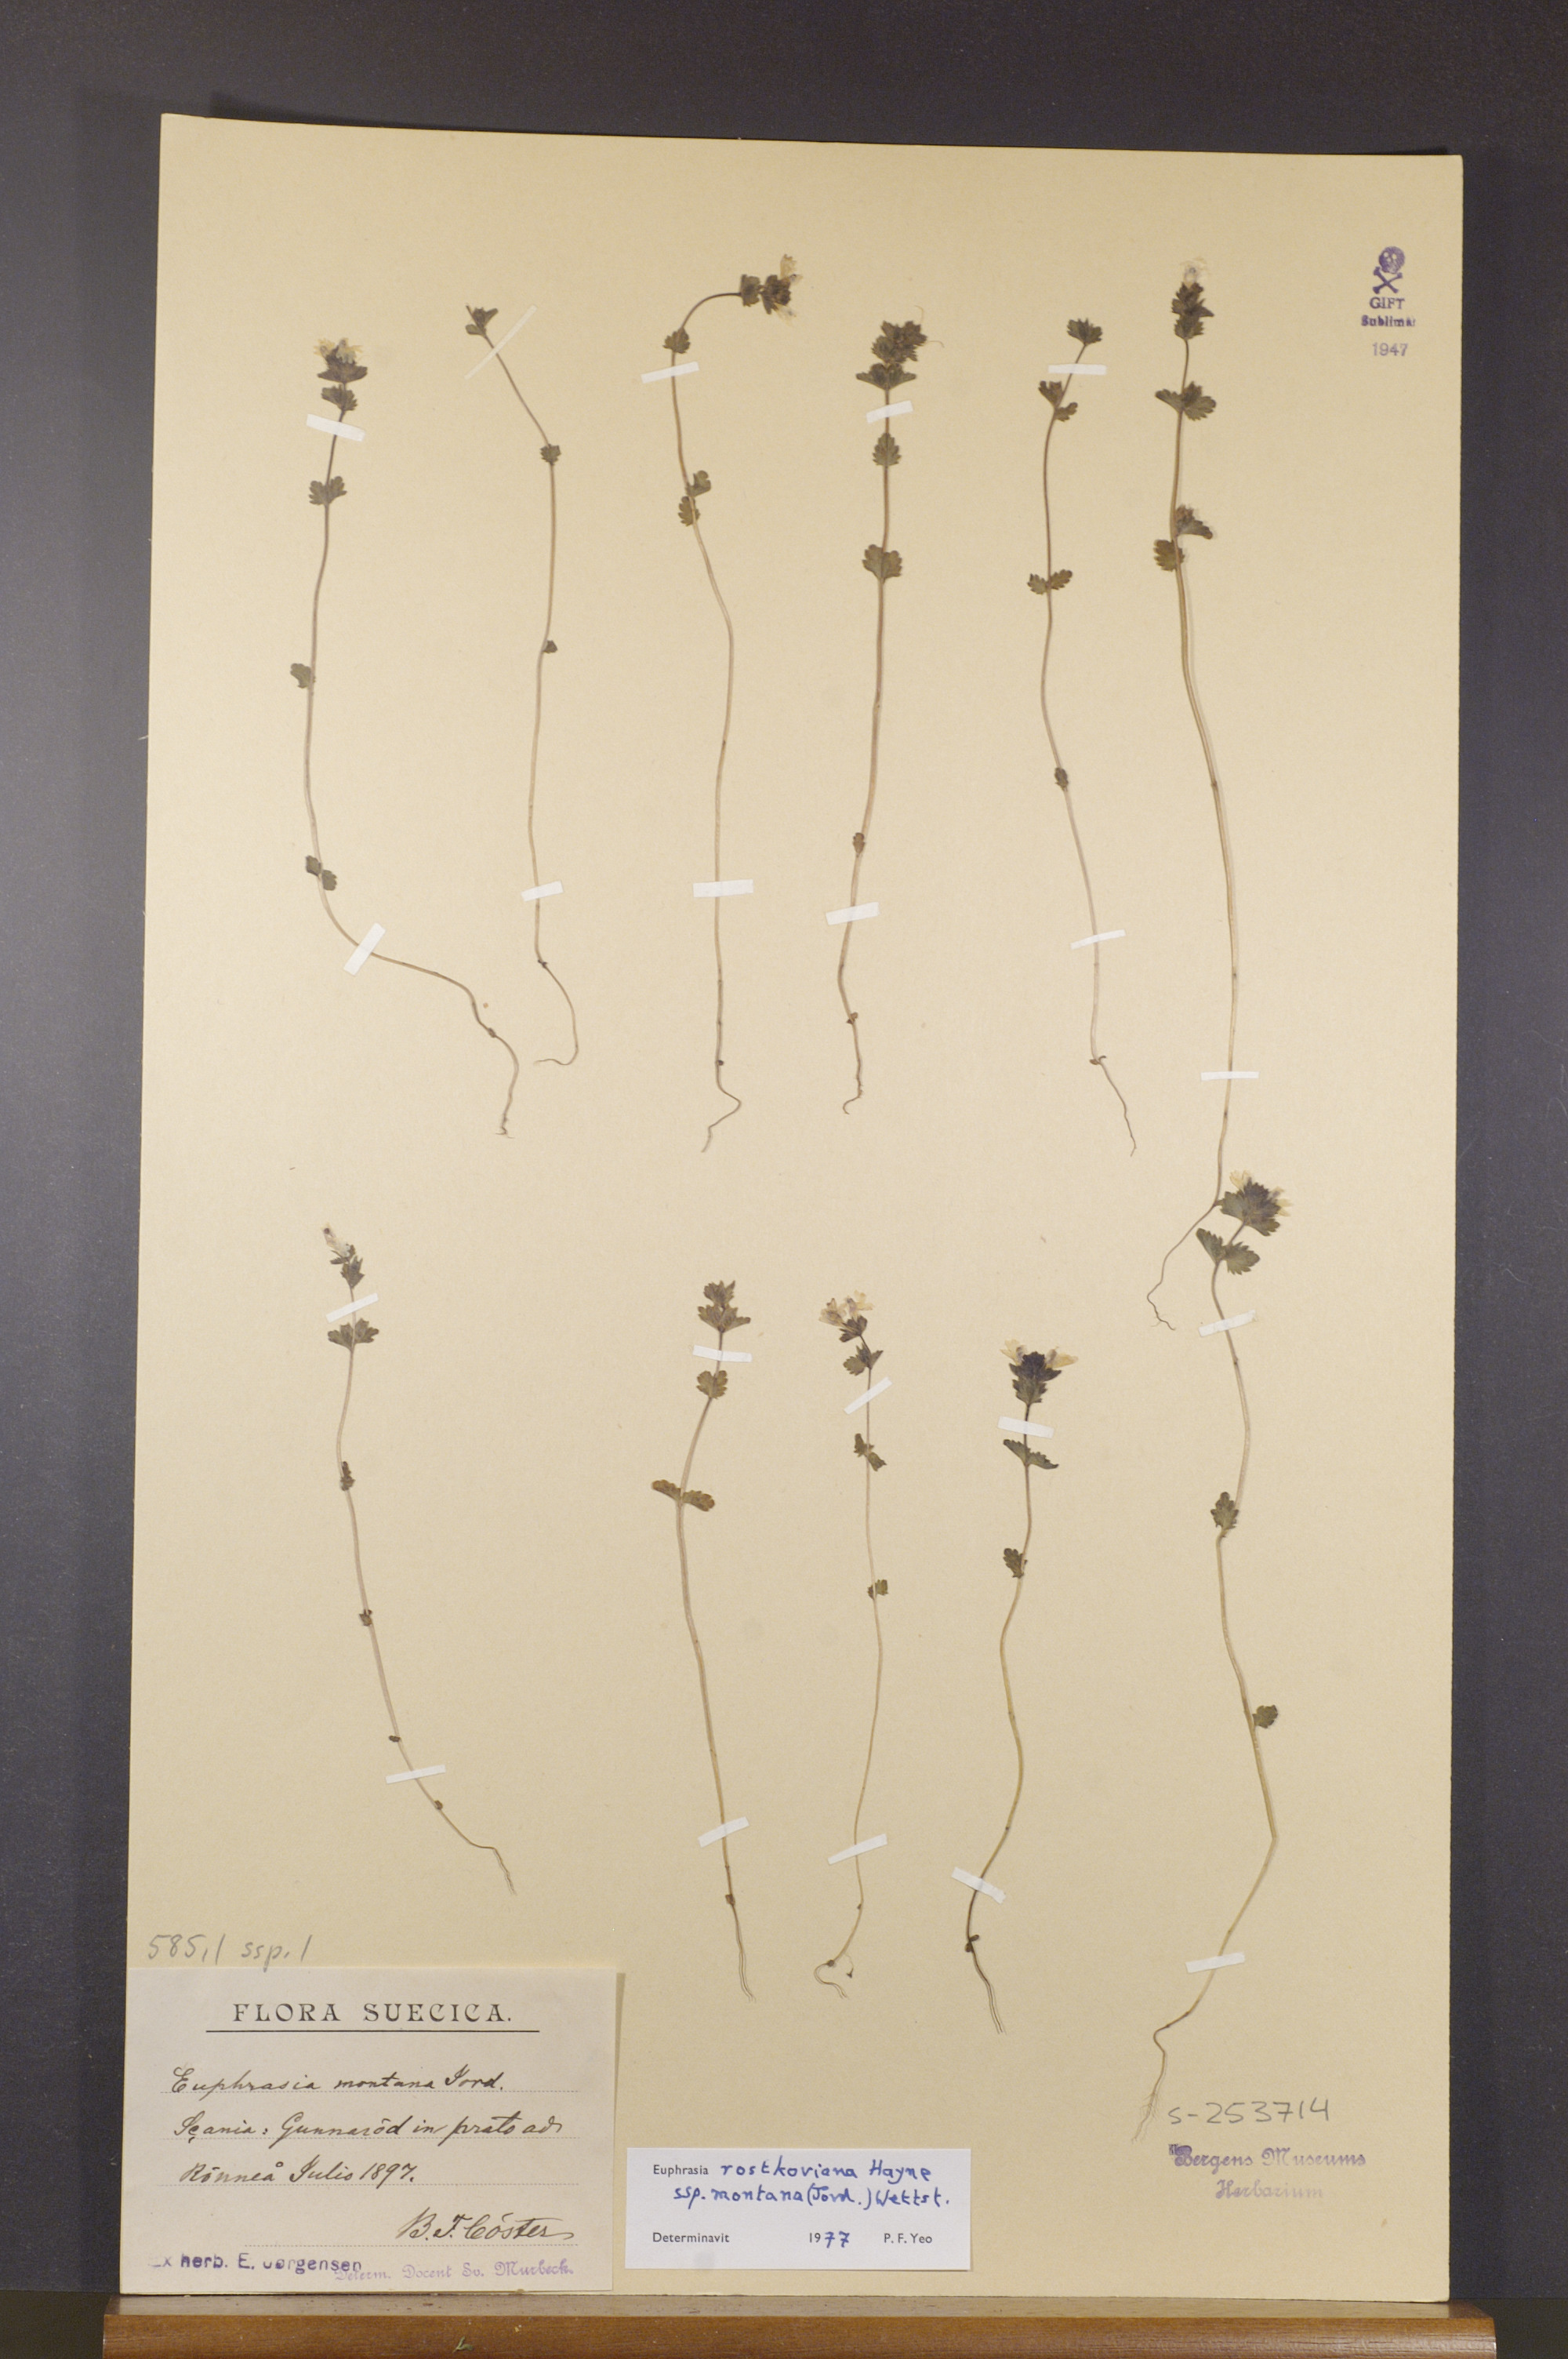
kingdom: Plantae
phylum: Tracheophyta
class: Magnoliopsida
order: Lamiales
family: Orobanchaceae
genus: Euphrasia
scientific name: Euphrasia officinalis
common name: Eyebright
